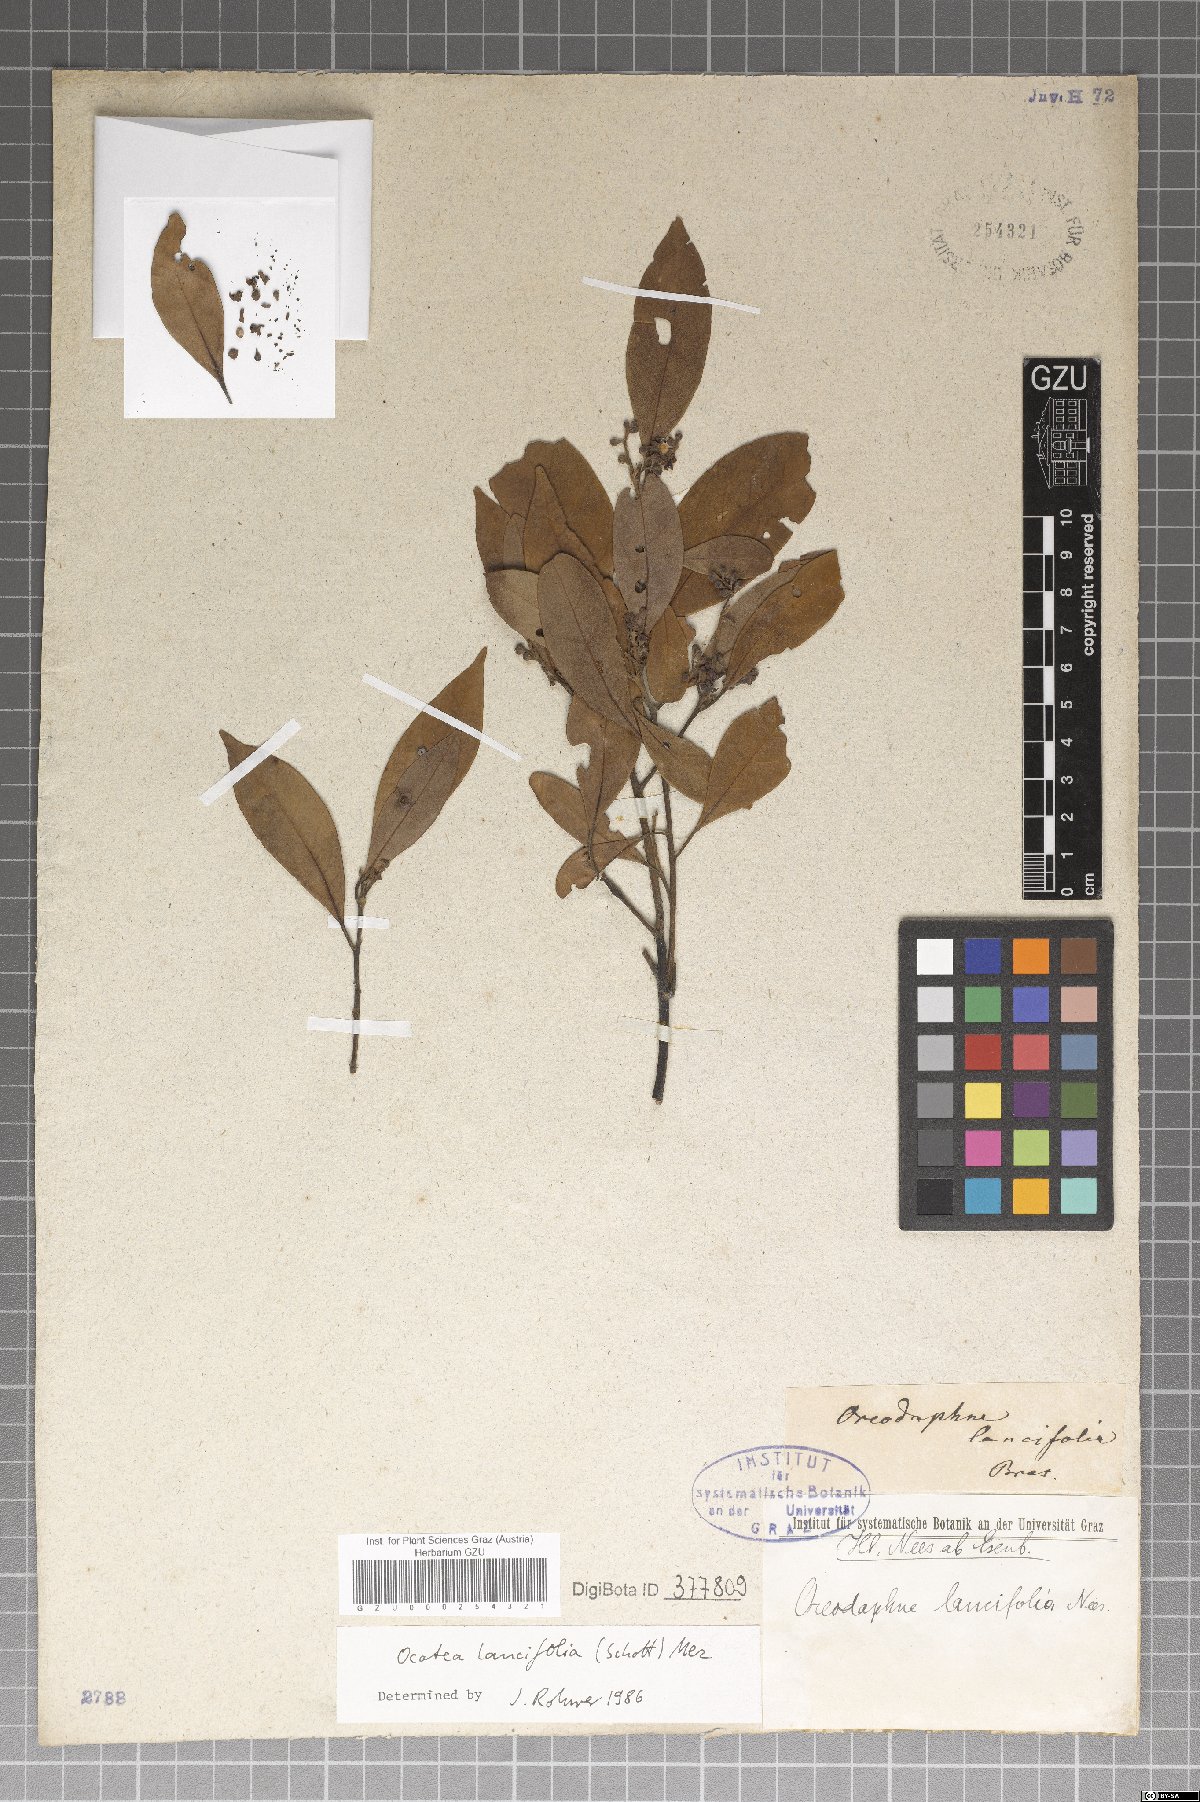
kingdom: Plantae
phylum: Tracheophyta
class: Magnoliopsida
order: Laurales
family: Lauraceae
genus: Ocotea
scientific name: Ocotea lancifolia
